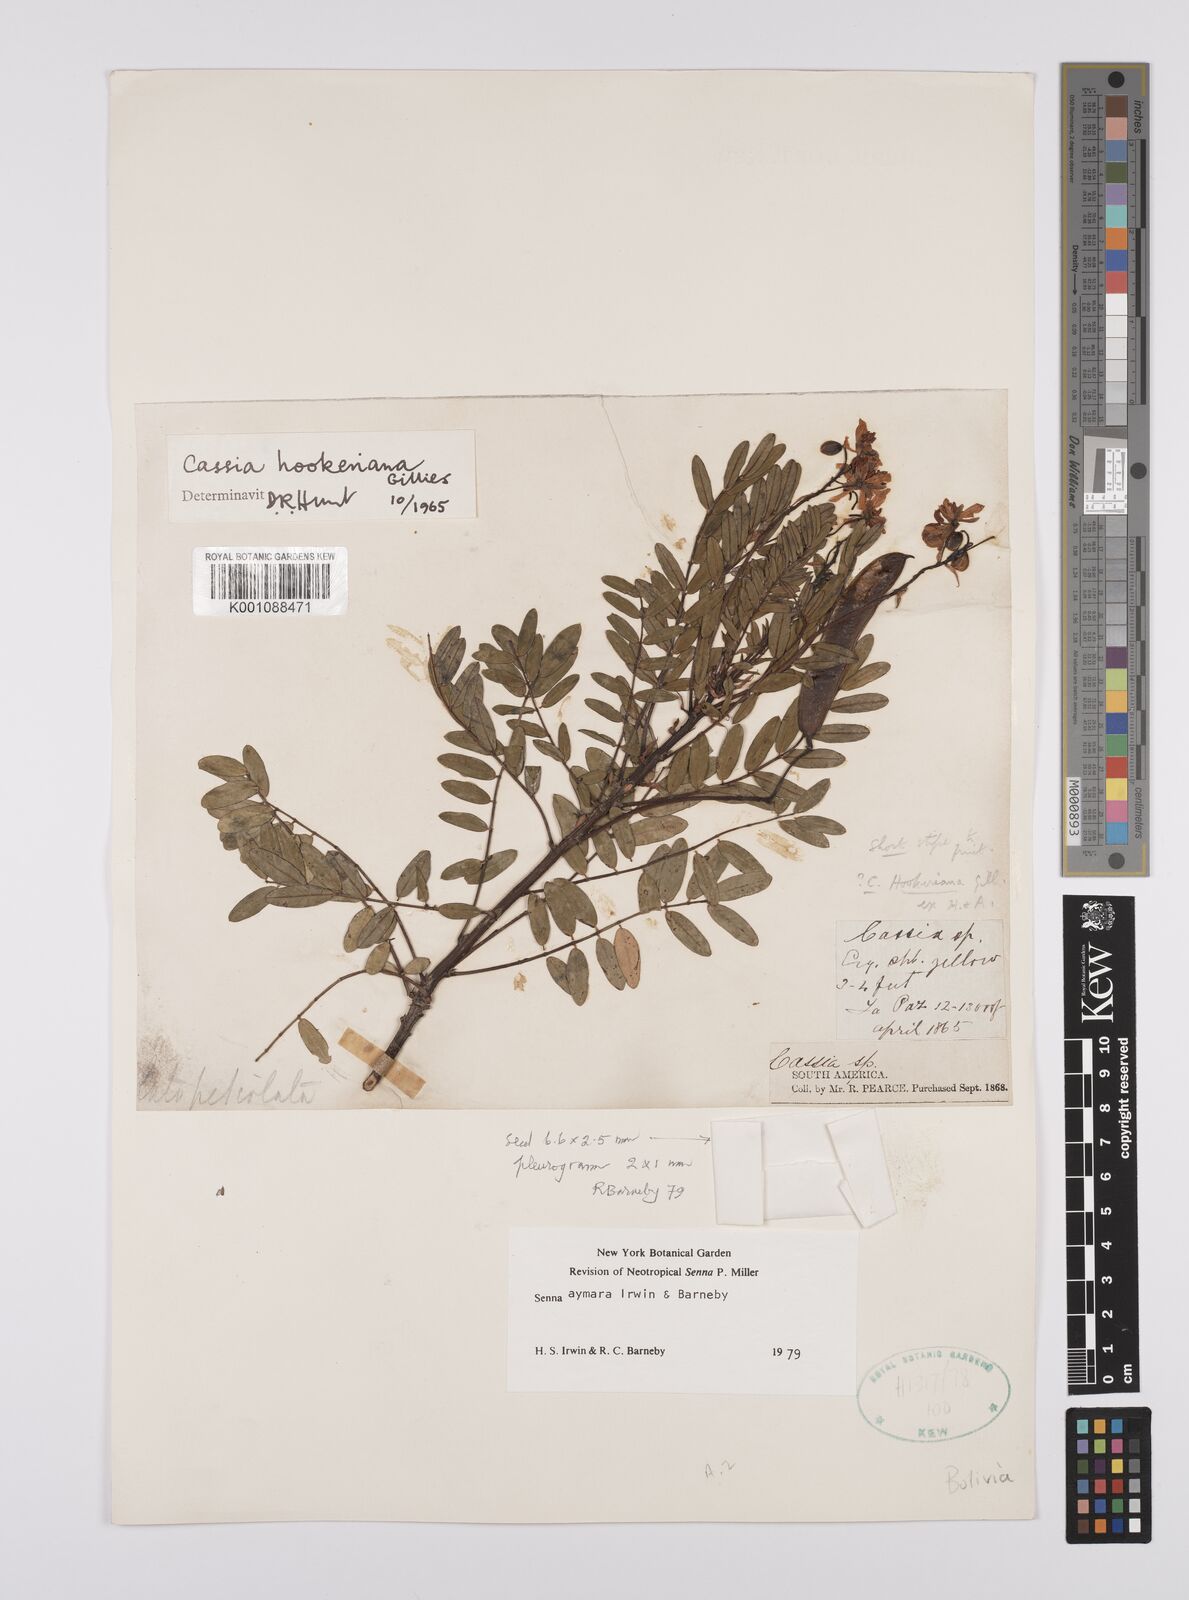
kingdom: Plantae
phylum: Tracheophyta
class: Magnoliopsida
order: Fabales
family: Fabaceae
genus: Senna
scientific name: Senna aymara
